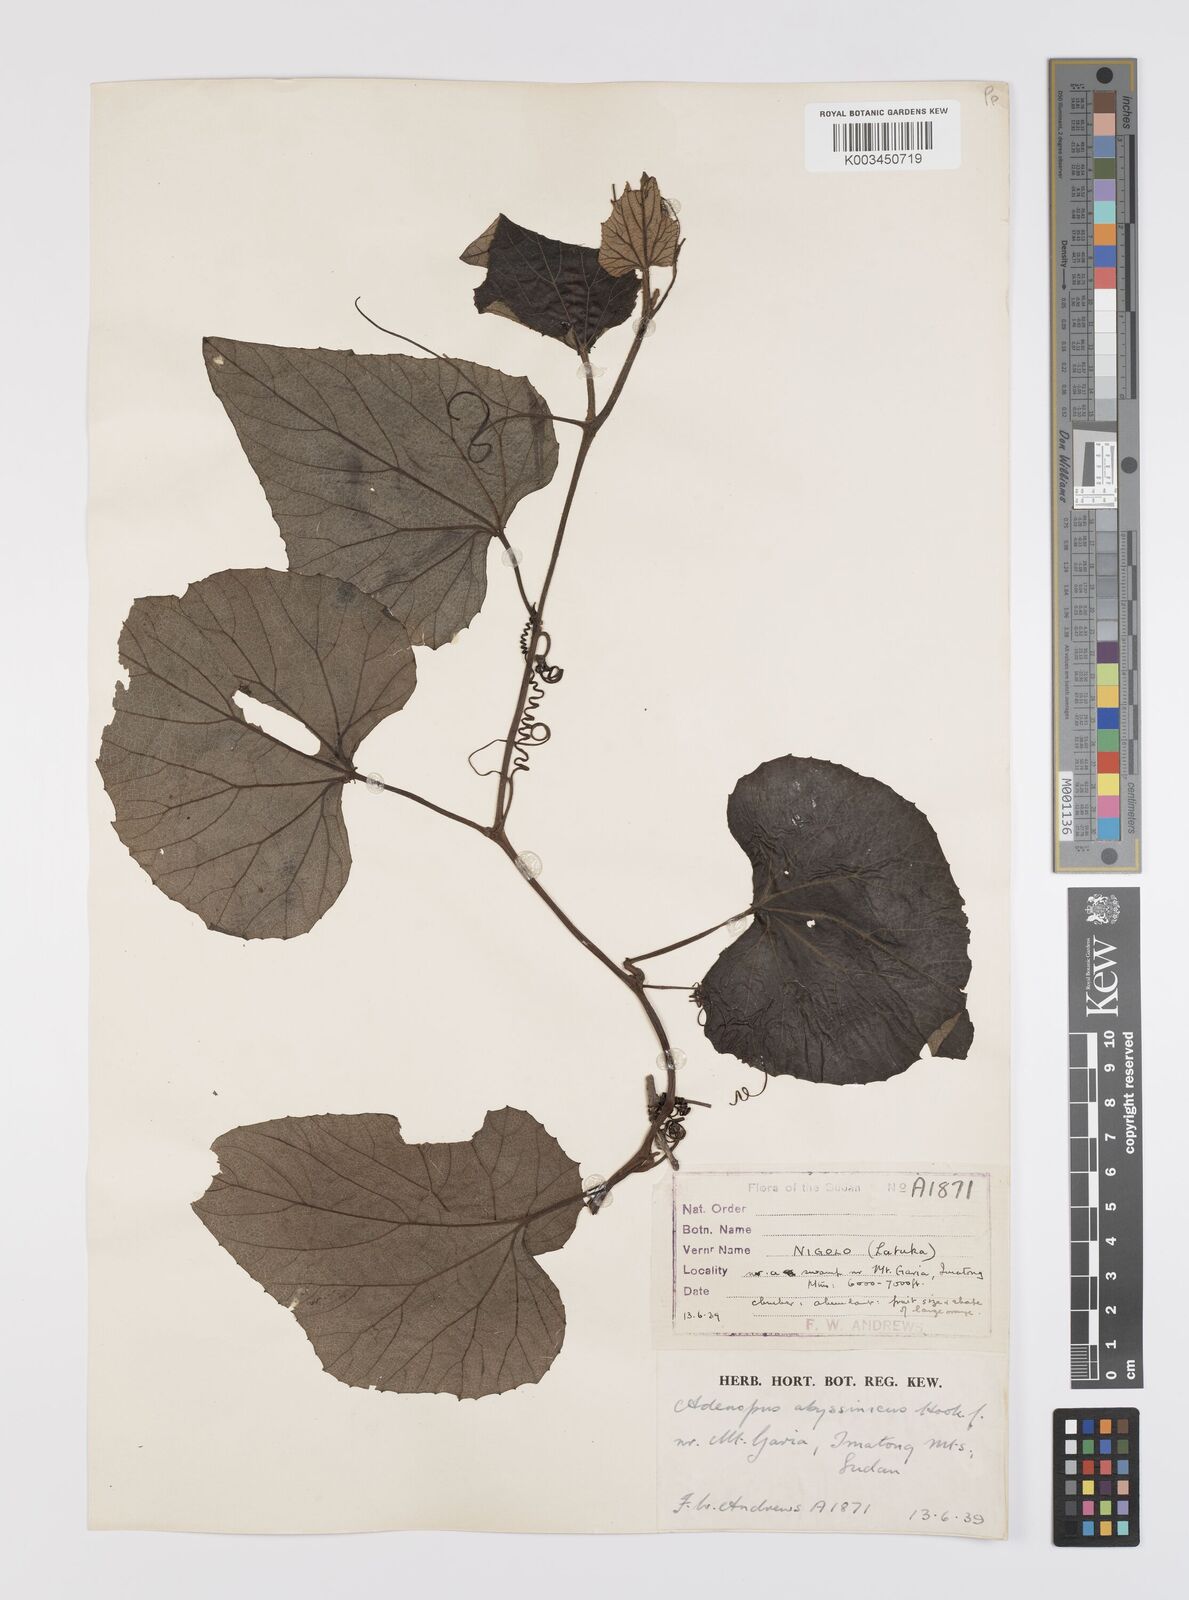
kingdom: Plantae
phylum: Tracheophyta
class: Magnoliopsida
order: Cucurbitales
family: Cucurbitaceae
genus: Lagenaria
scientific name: Lagenaria abyssinica
